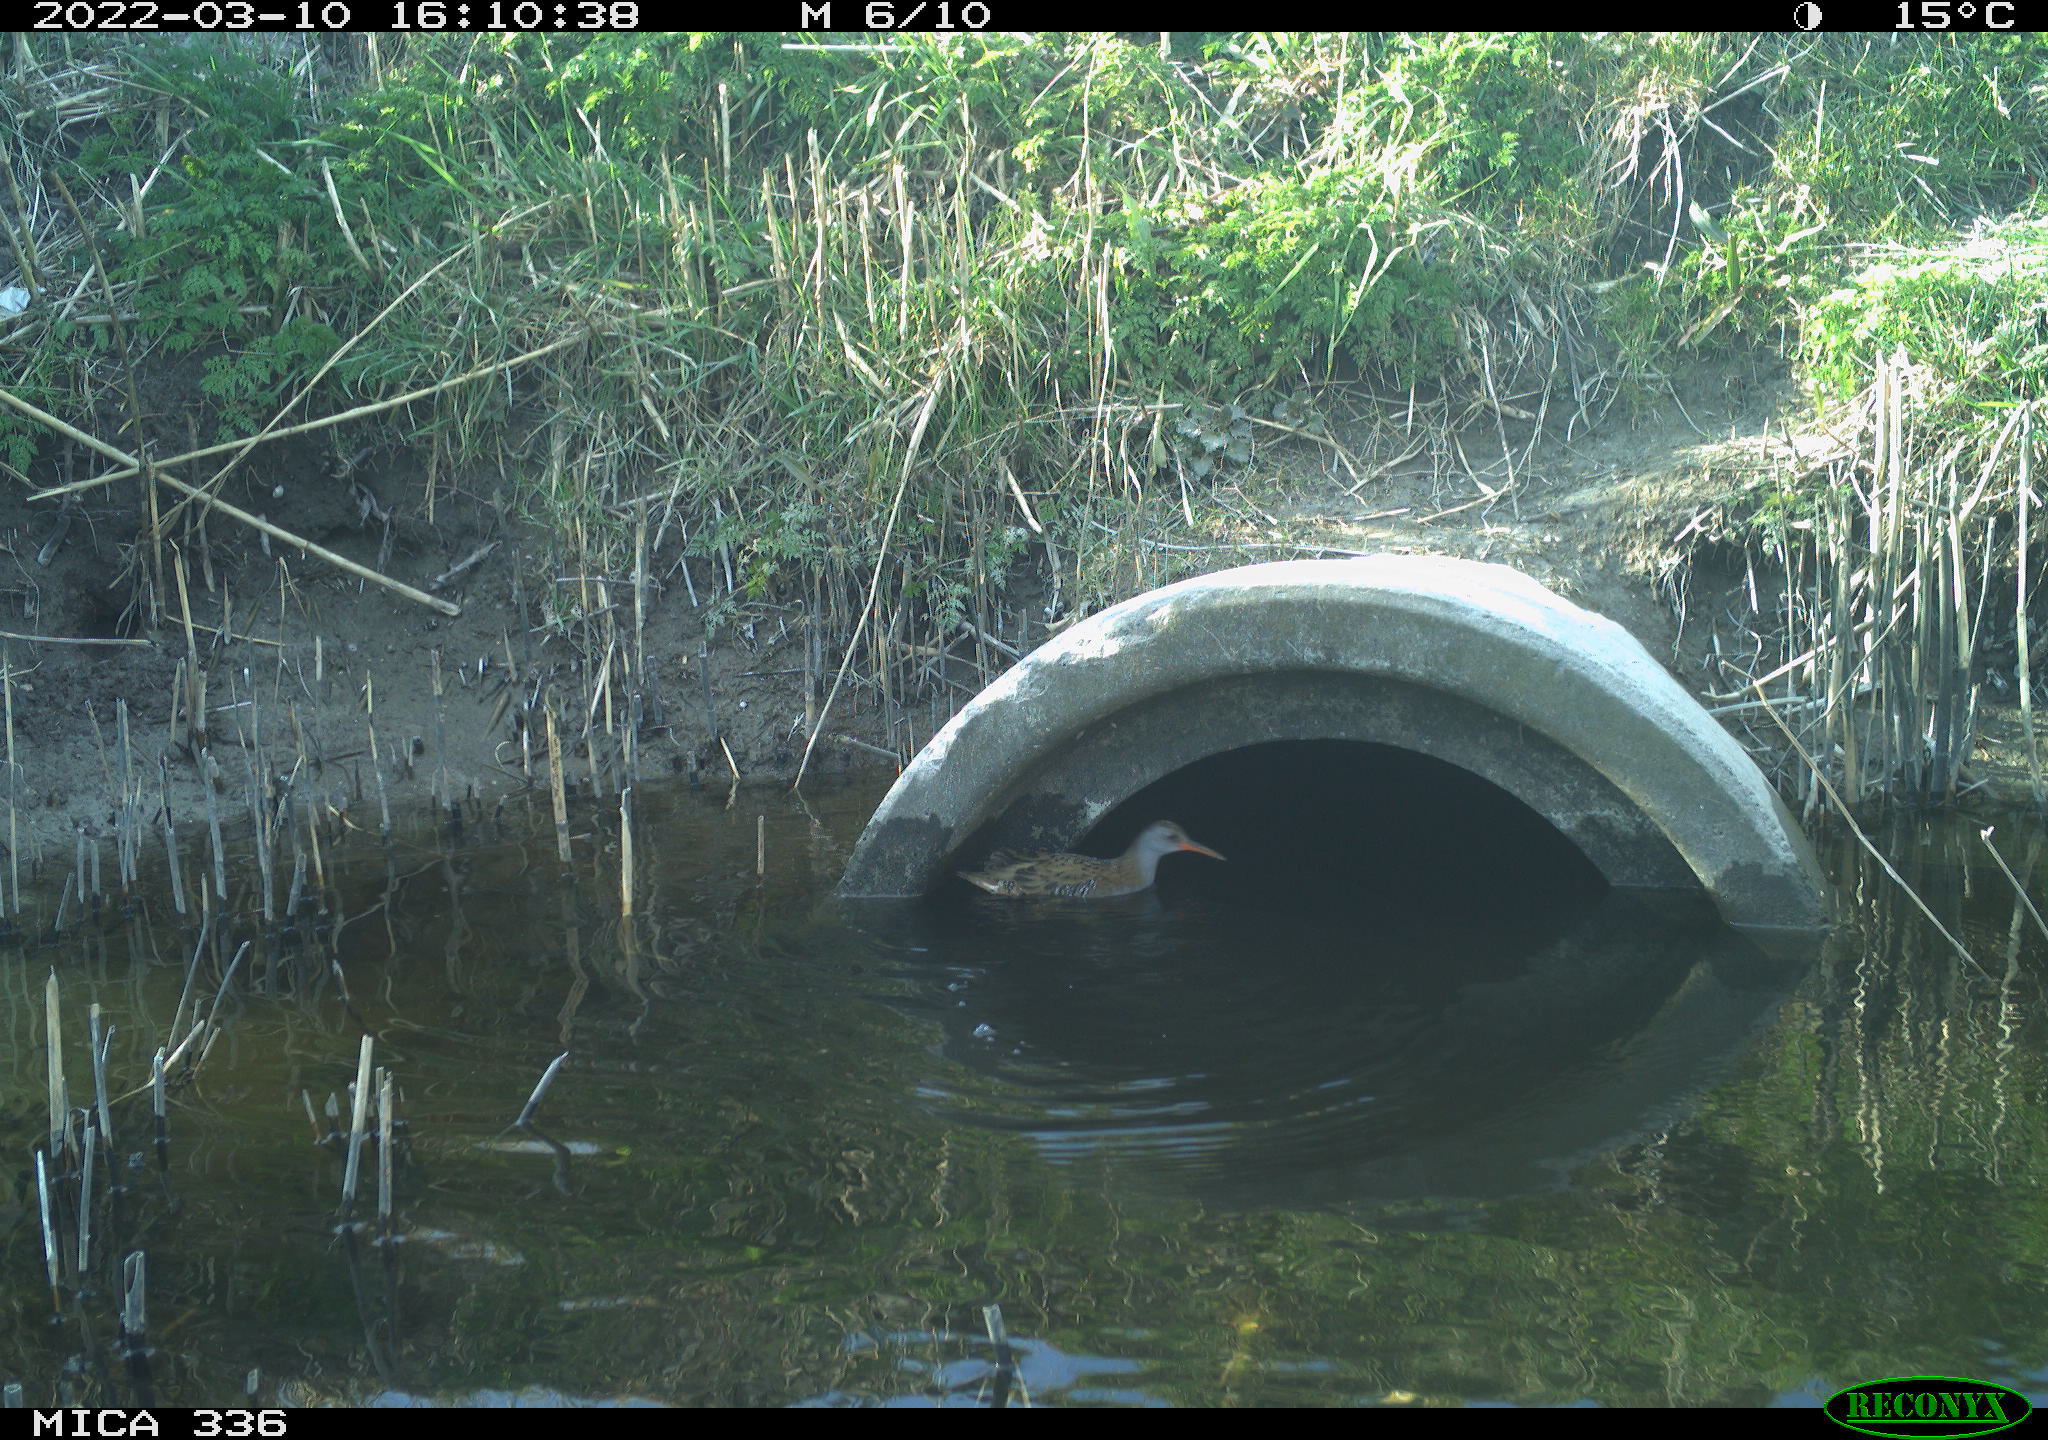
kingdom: Animalia
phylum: Chordata
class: Aves
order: Gruiformes
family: Rallidae
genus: Rallus
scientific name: Rallus aquaticus
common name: Water rail
